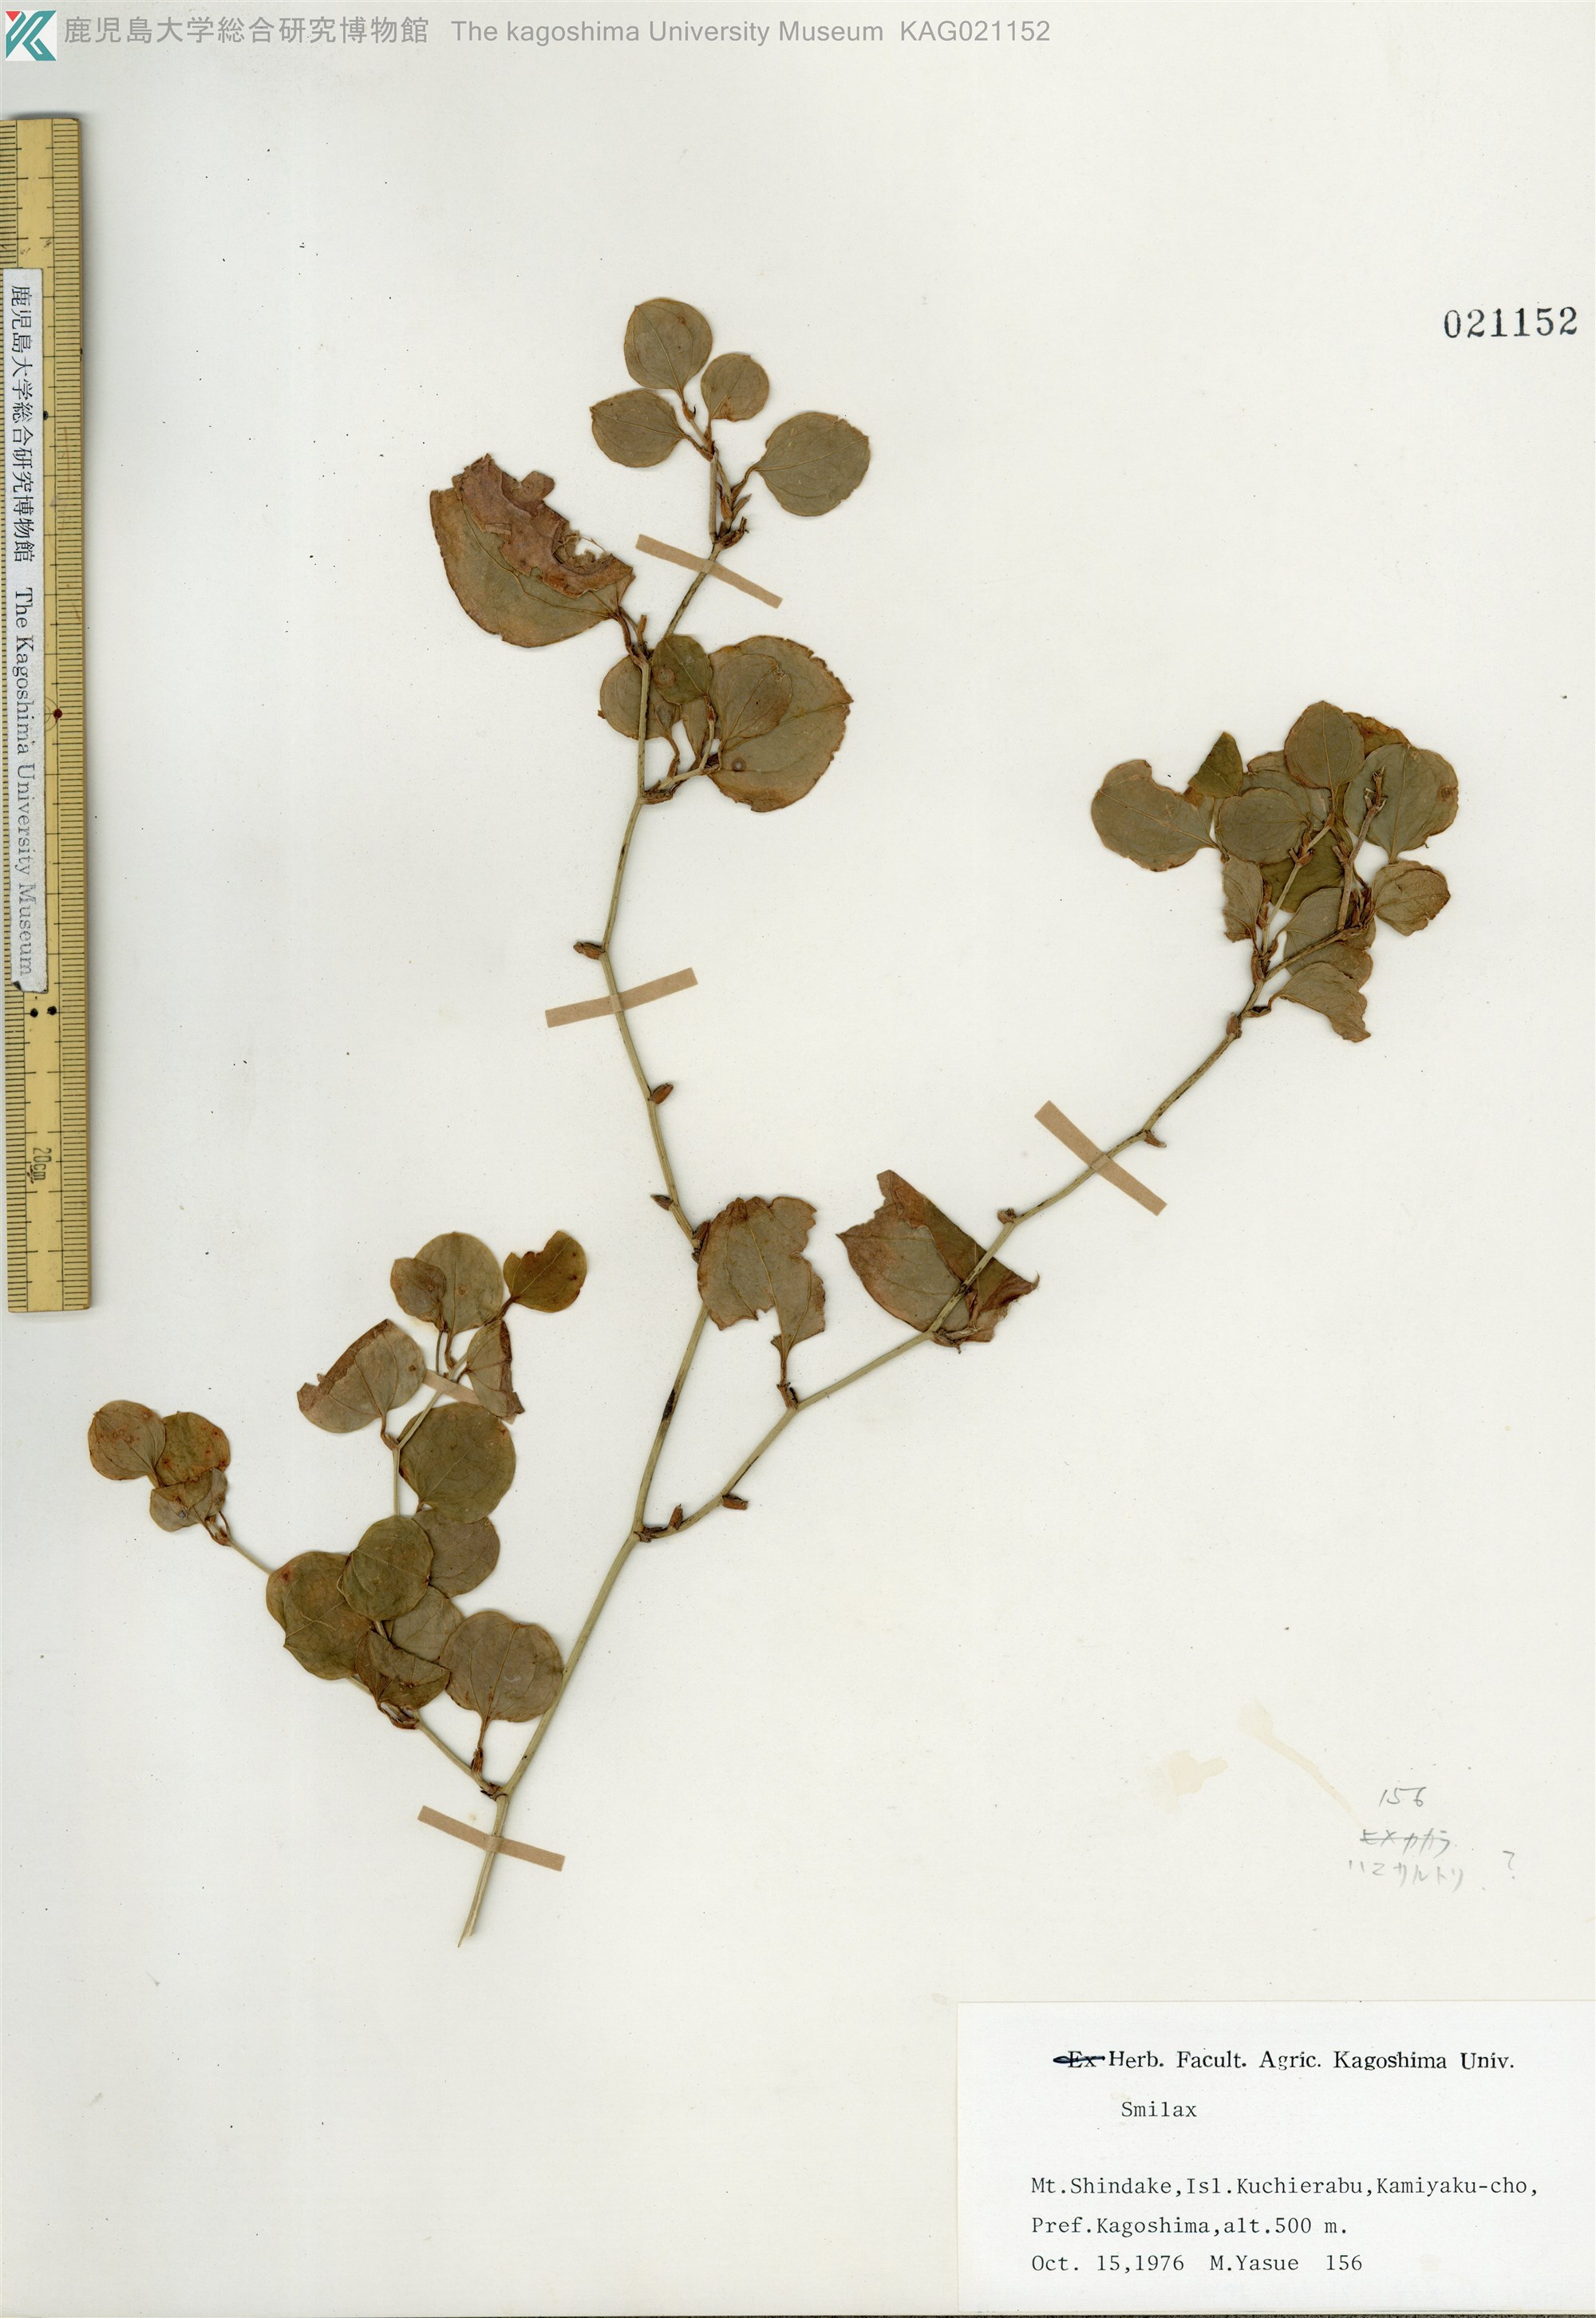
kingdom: Plantae
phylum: Tracheophyta
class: Liliopsida
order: Liliales
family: Smilacaceae
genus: Smilax
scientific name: Smilax china
